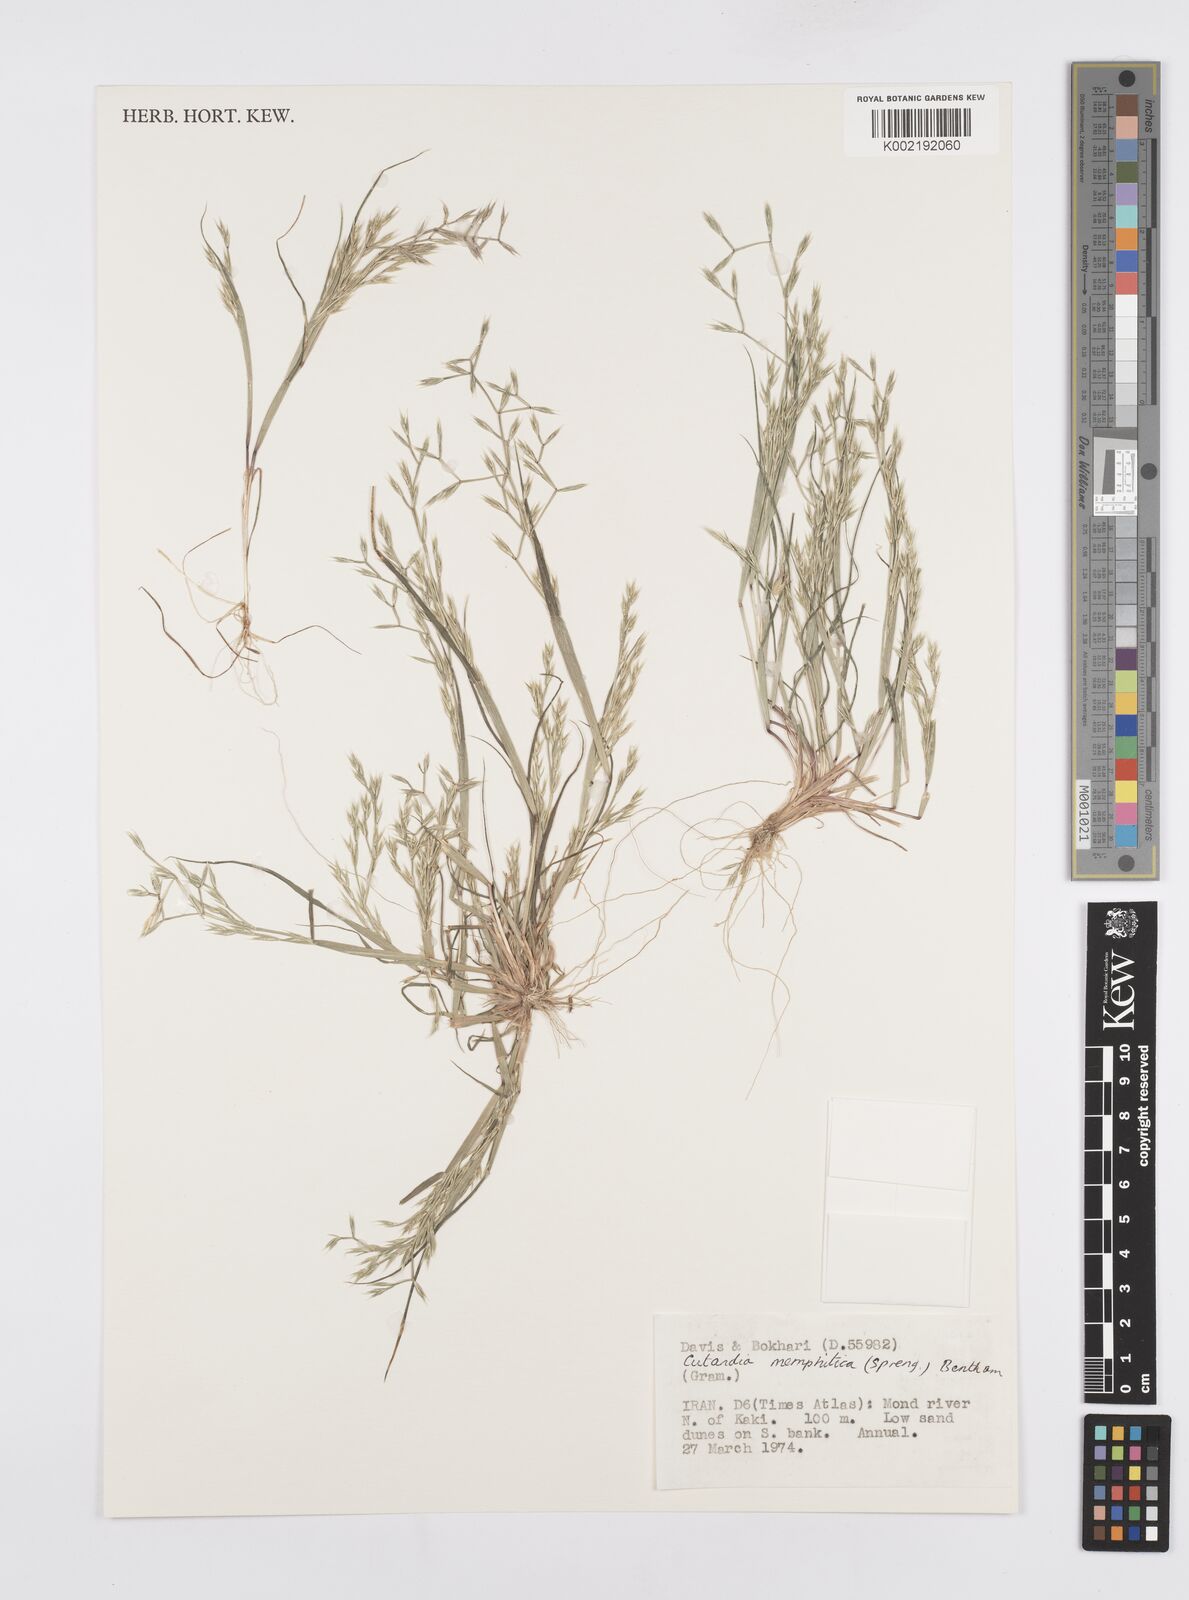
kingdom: Plantae
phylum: Tracheophyta
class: Liliopsida
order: Poales
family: Poaceae
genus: Cutandia
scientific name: Cutandia memphitica
